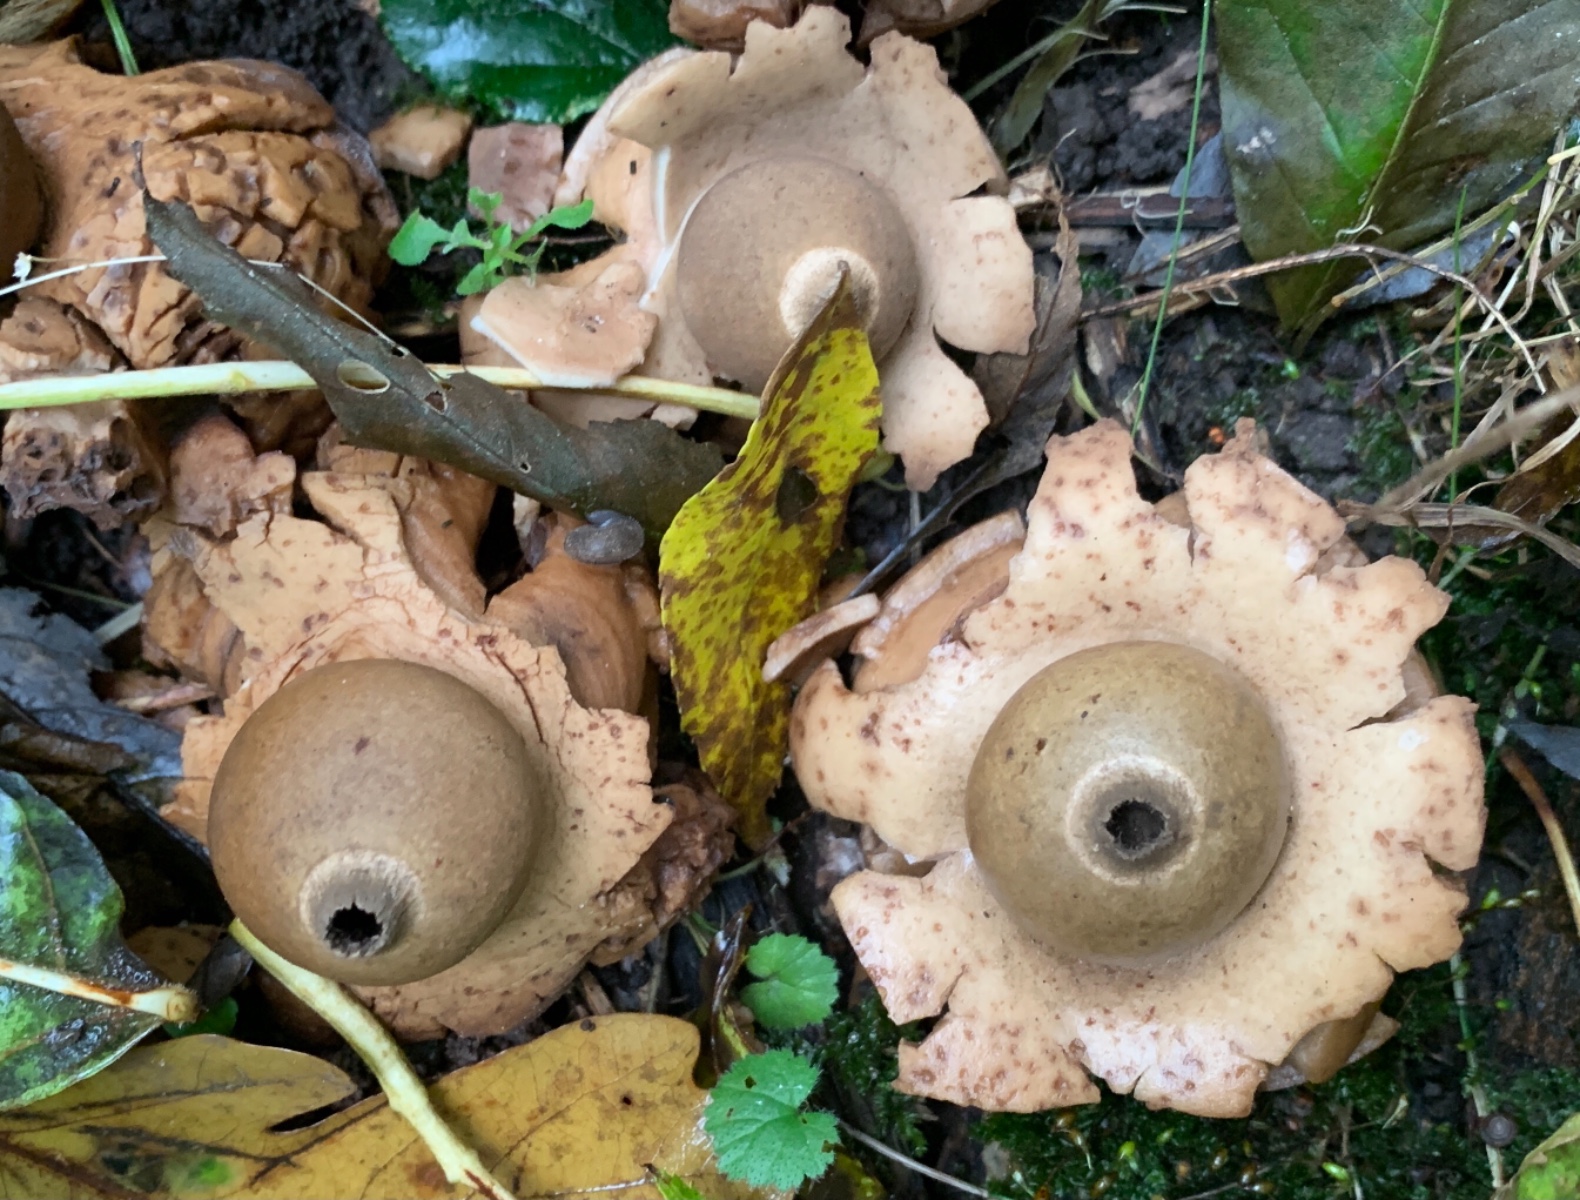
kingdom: Fungi
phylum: Basidiomycota
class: Agaricomycetes
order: Geastrales
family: Geastraceae
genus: Geastrum
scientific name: Geastrum michelianum
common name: kødet stjernebold
